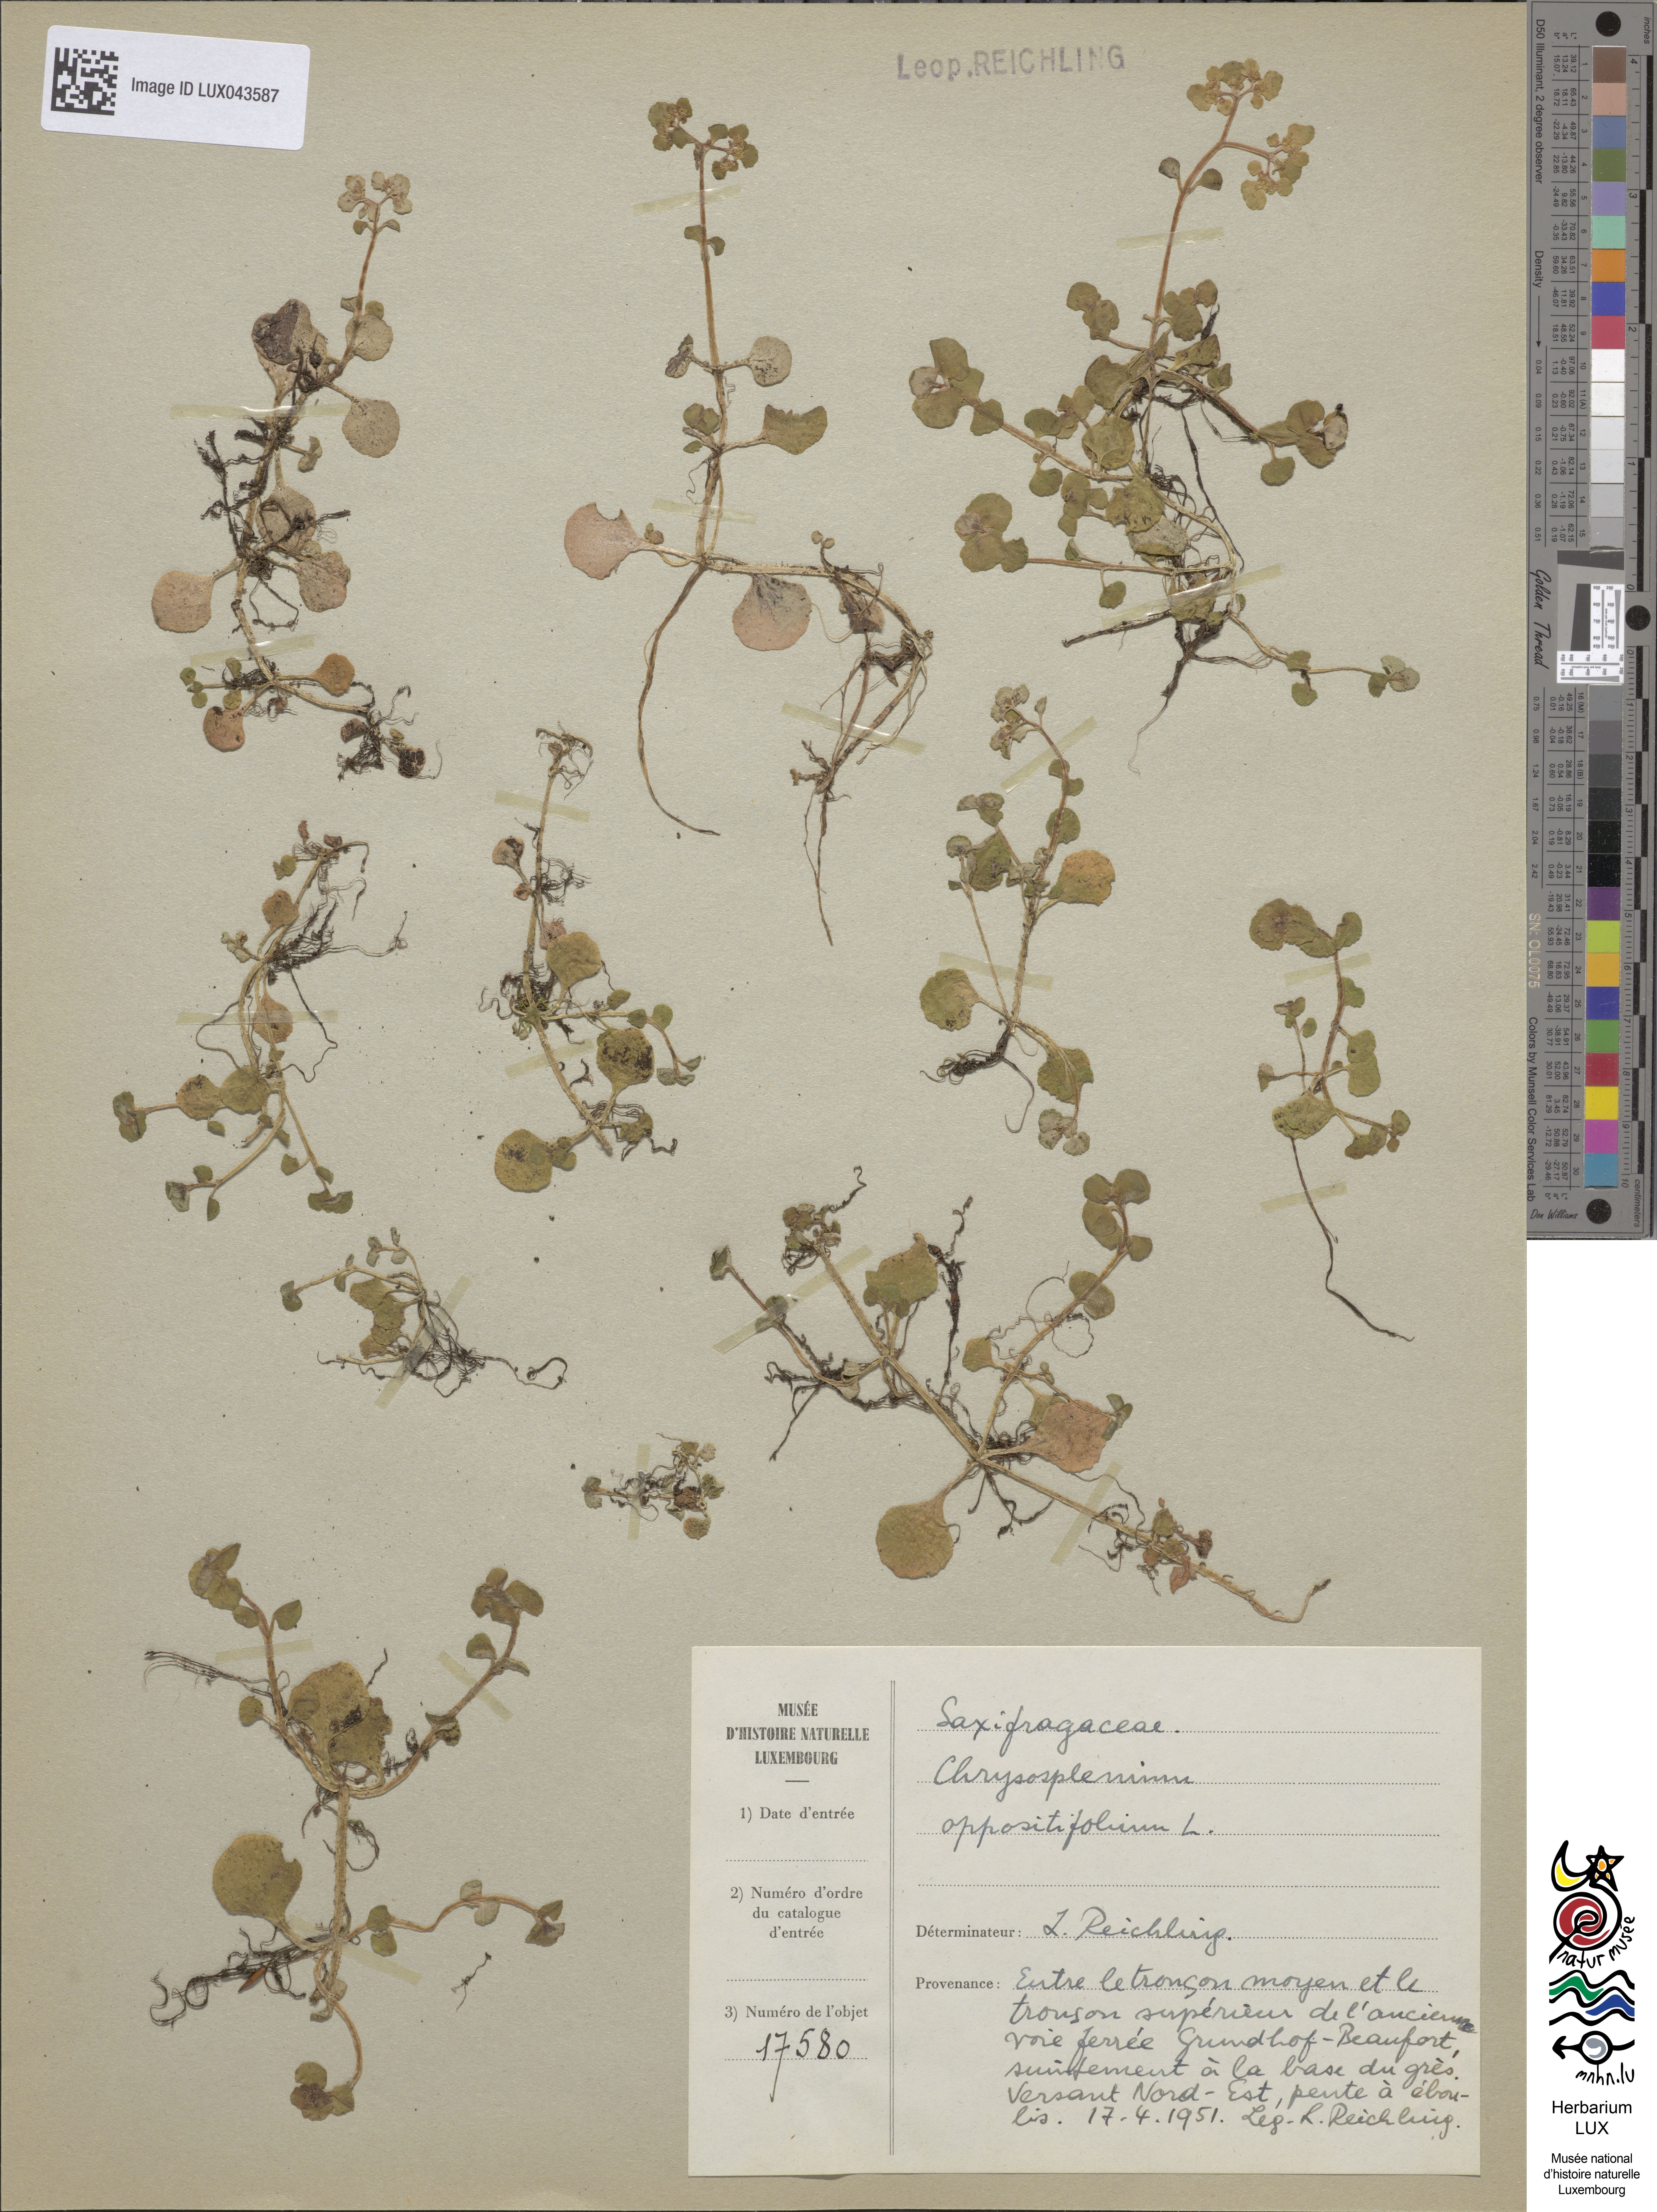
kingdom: Plantae
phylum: Tracheophyta
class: Magnoliopsida
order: Saxifragales
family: Saxifragaceae
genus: Chrysosplenium
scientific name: Chrysosplenium oppositifolium
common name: Opposite-leaved golden-saxifrage
